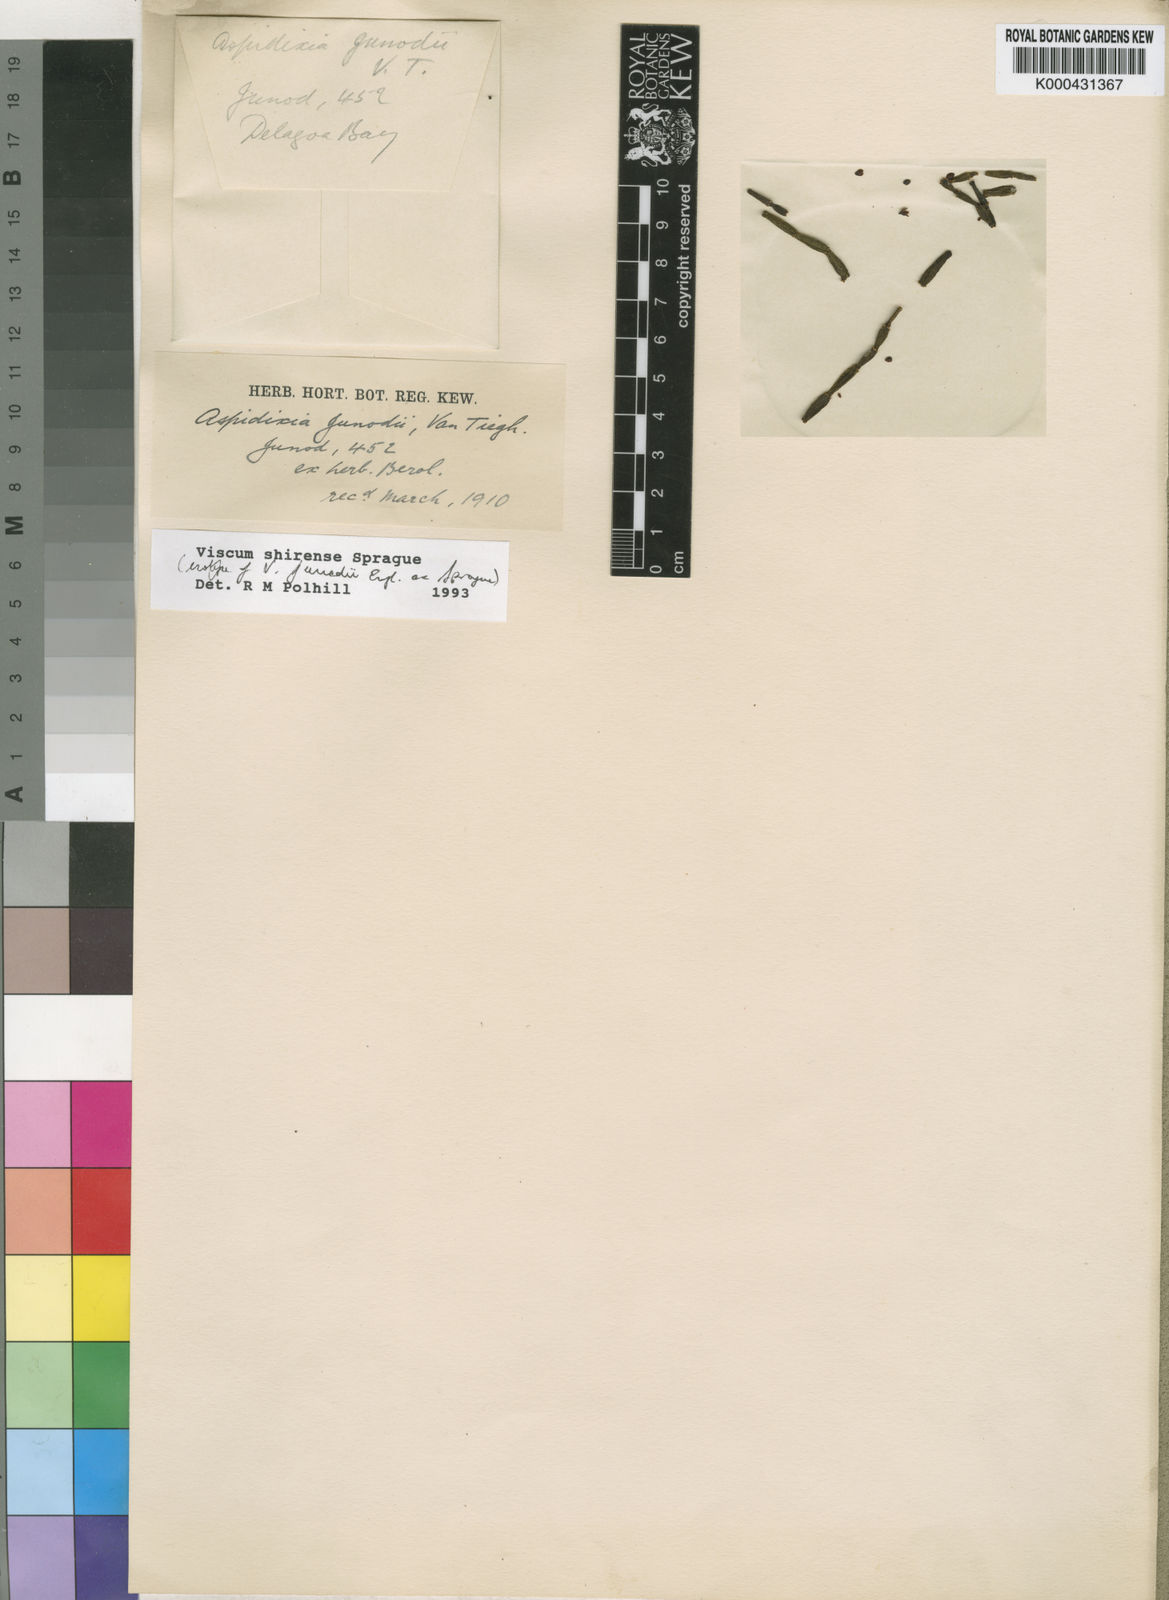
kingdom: Plantae
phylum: Tracheophyta
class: Magnoliopsida
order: Santalales
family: Viscaceae
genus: Viscum
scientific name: Viscum junodii
